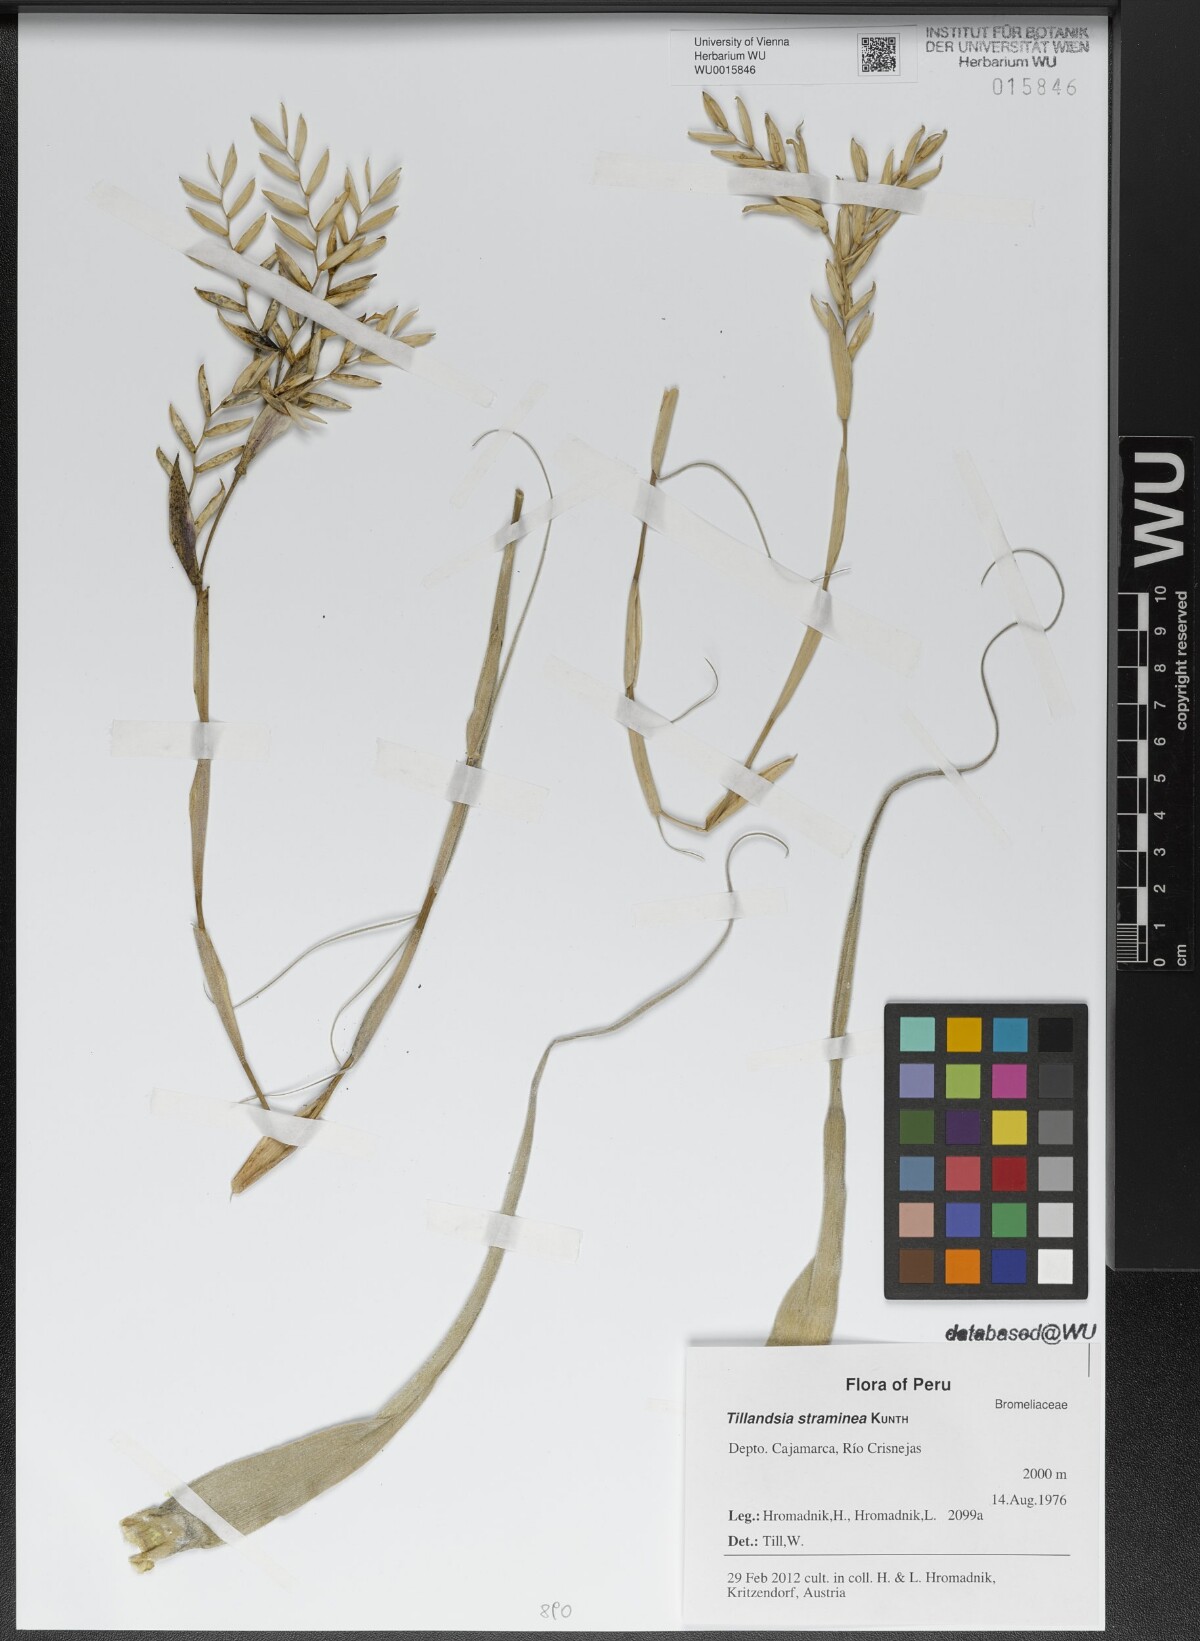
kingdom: Plantae
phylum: Tracheophyta
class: Liliopsida
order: Poales
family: Bromeliaceae
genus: Tillandsia
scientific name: Tillandsia straminea
